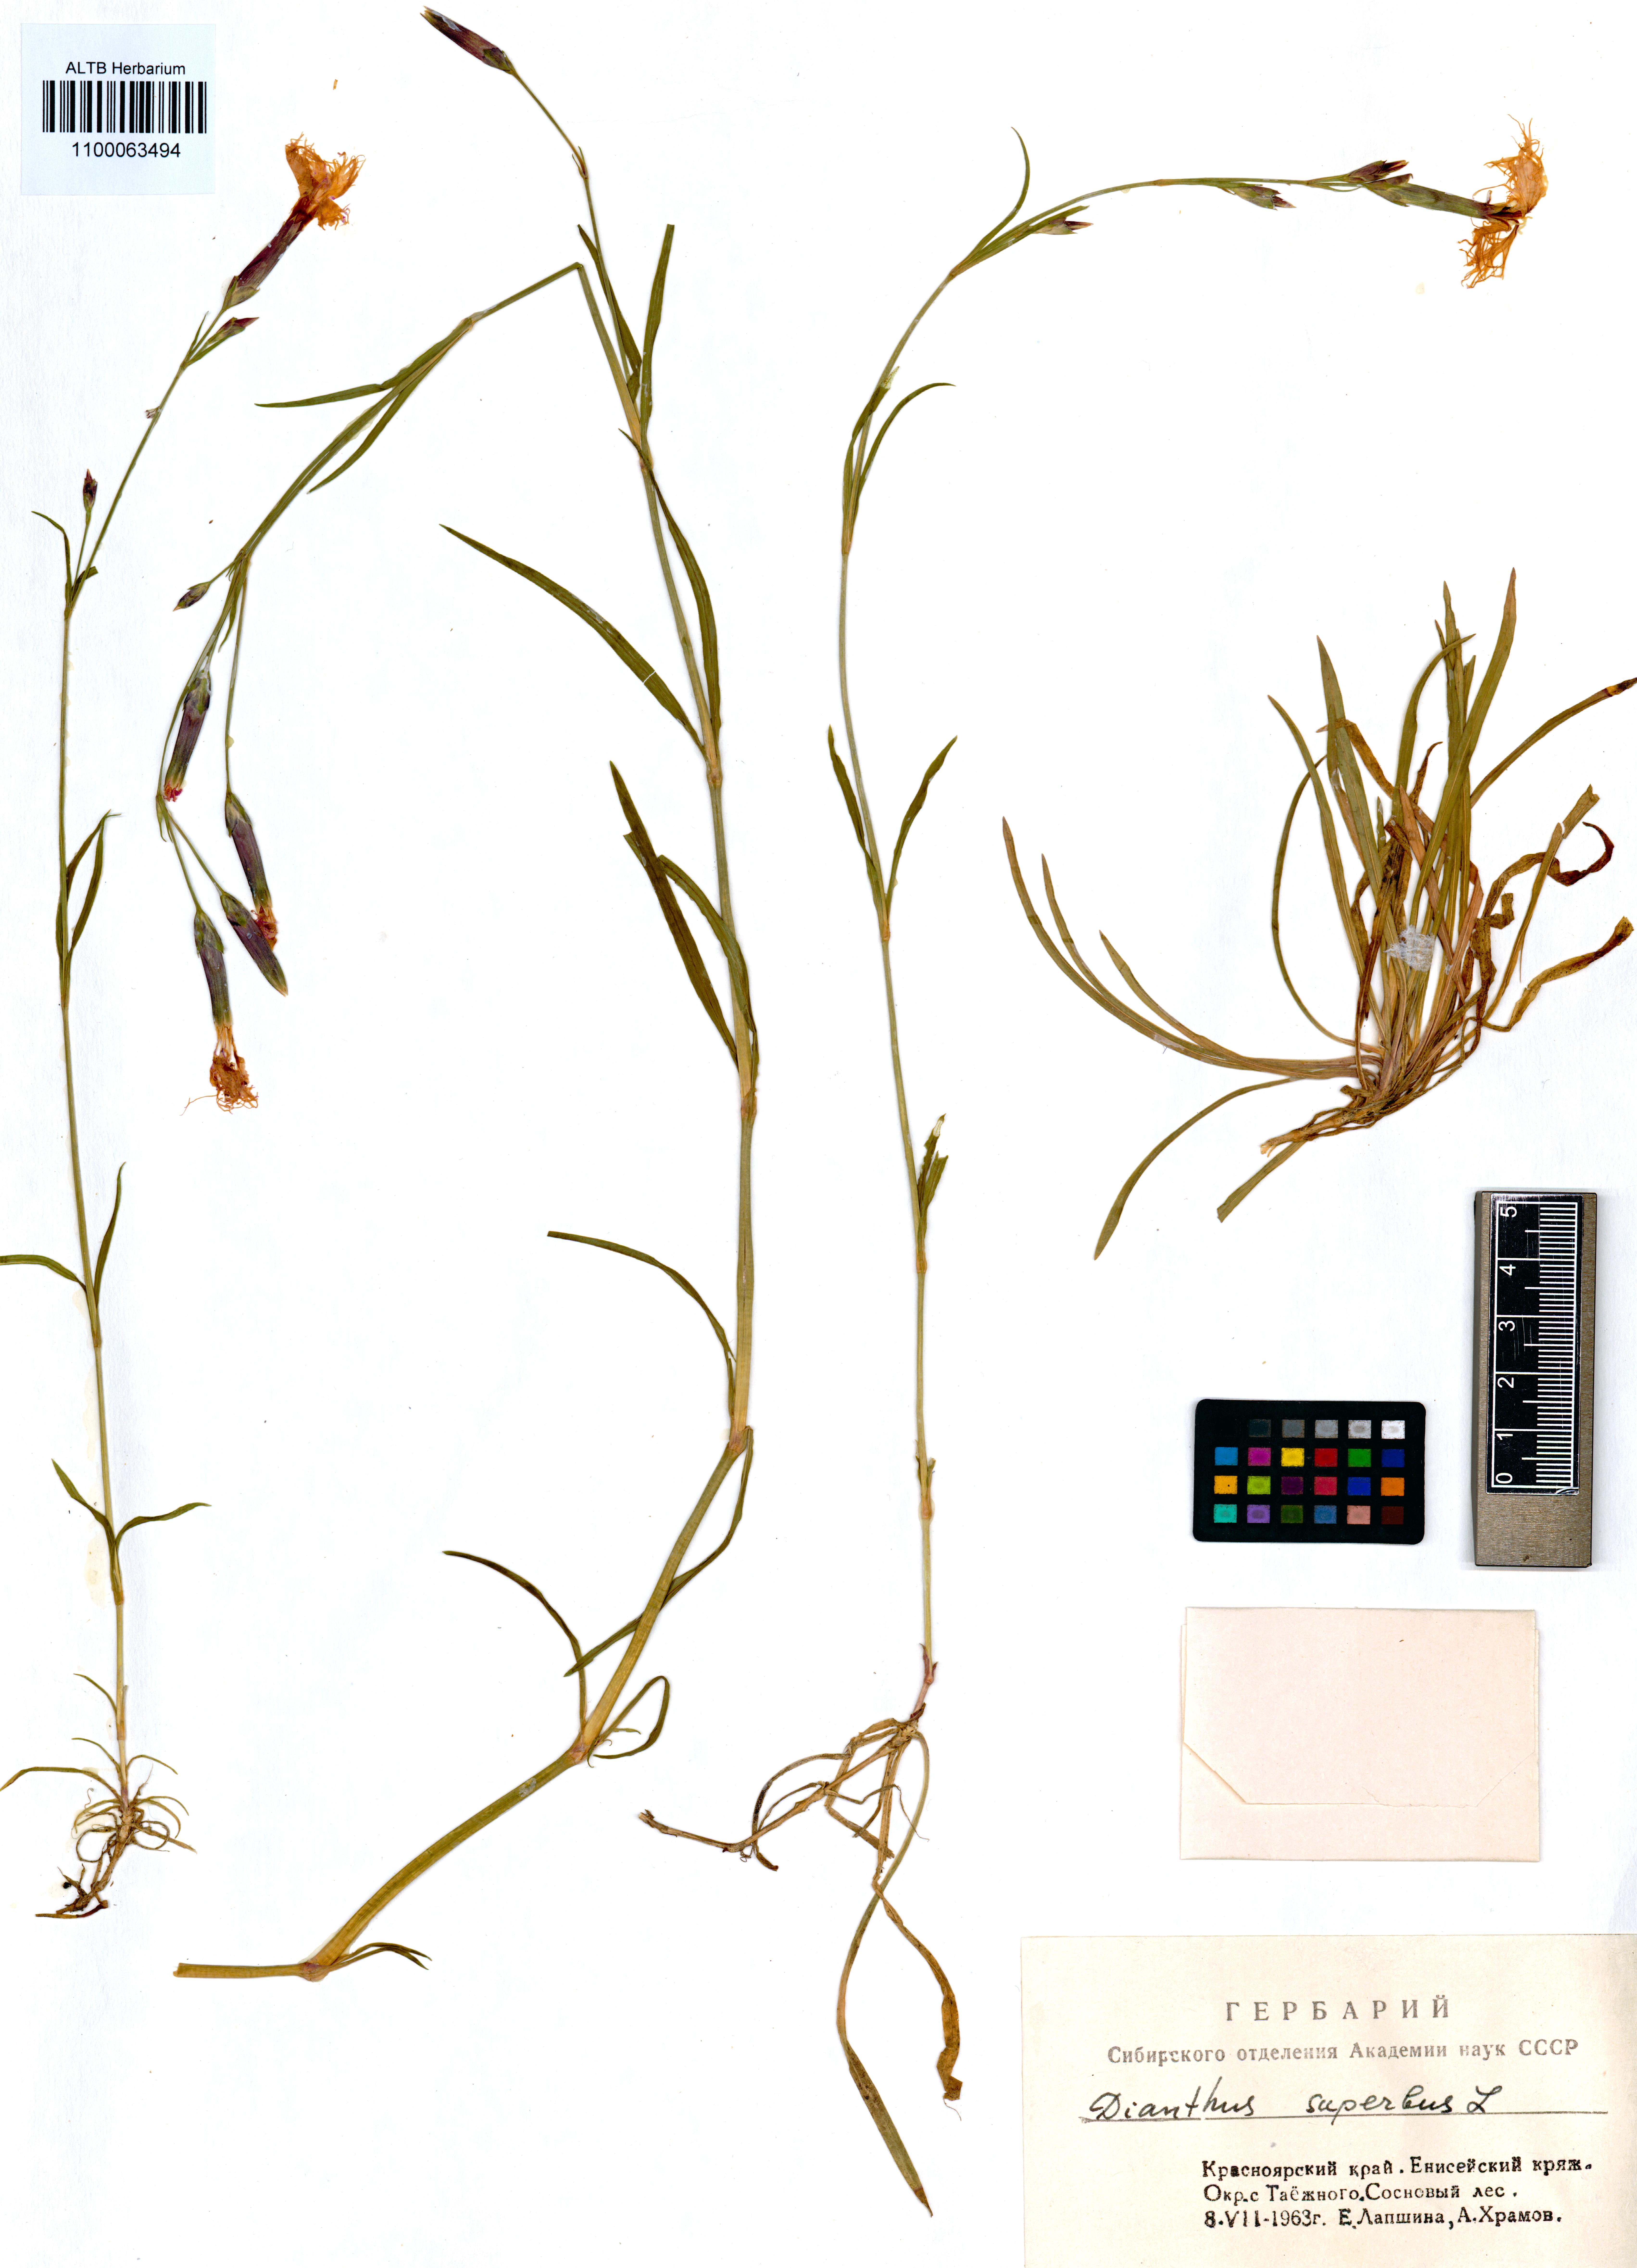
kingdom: Plantae
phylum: Tracheophyta
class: Magnoliopsida
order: Caryophyllales
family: Caryophyllaceae
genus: Dianthus
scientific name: Dianthus superbus
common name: Fringed pink
